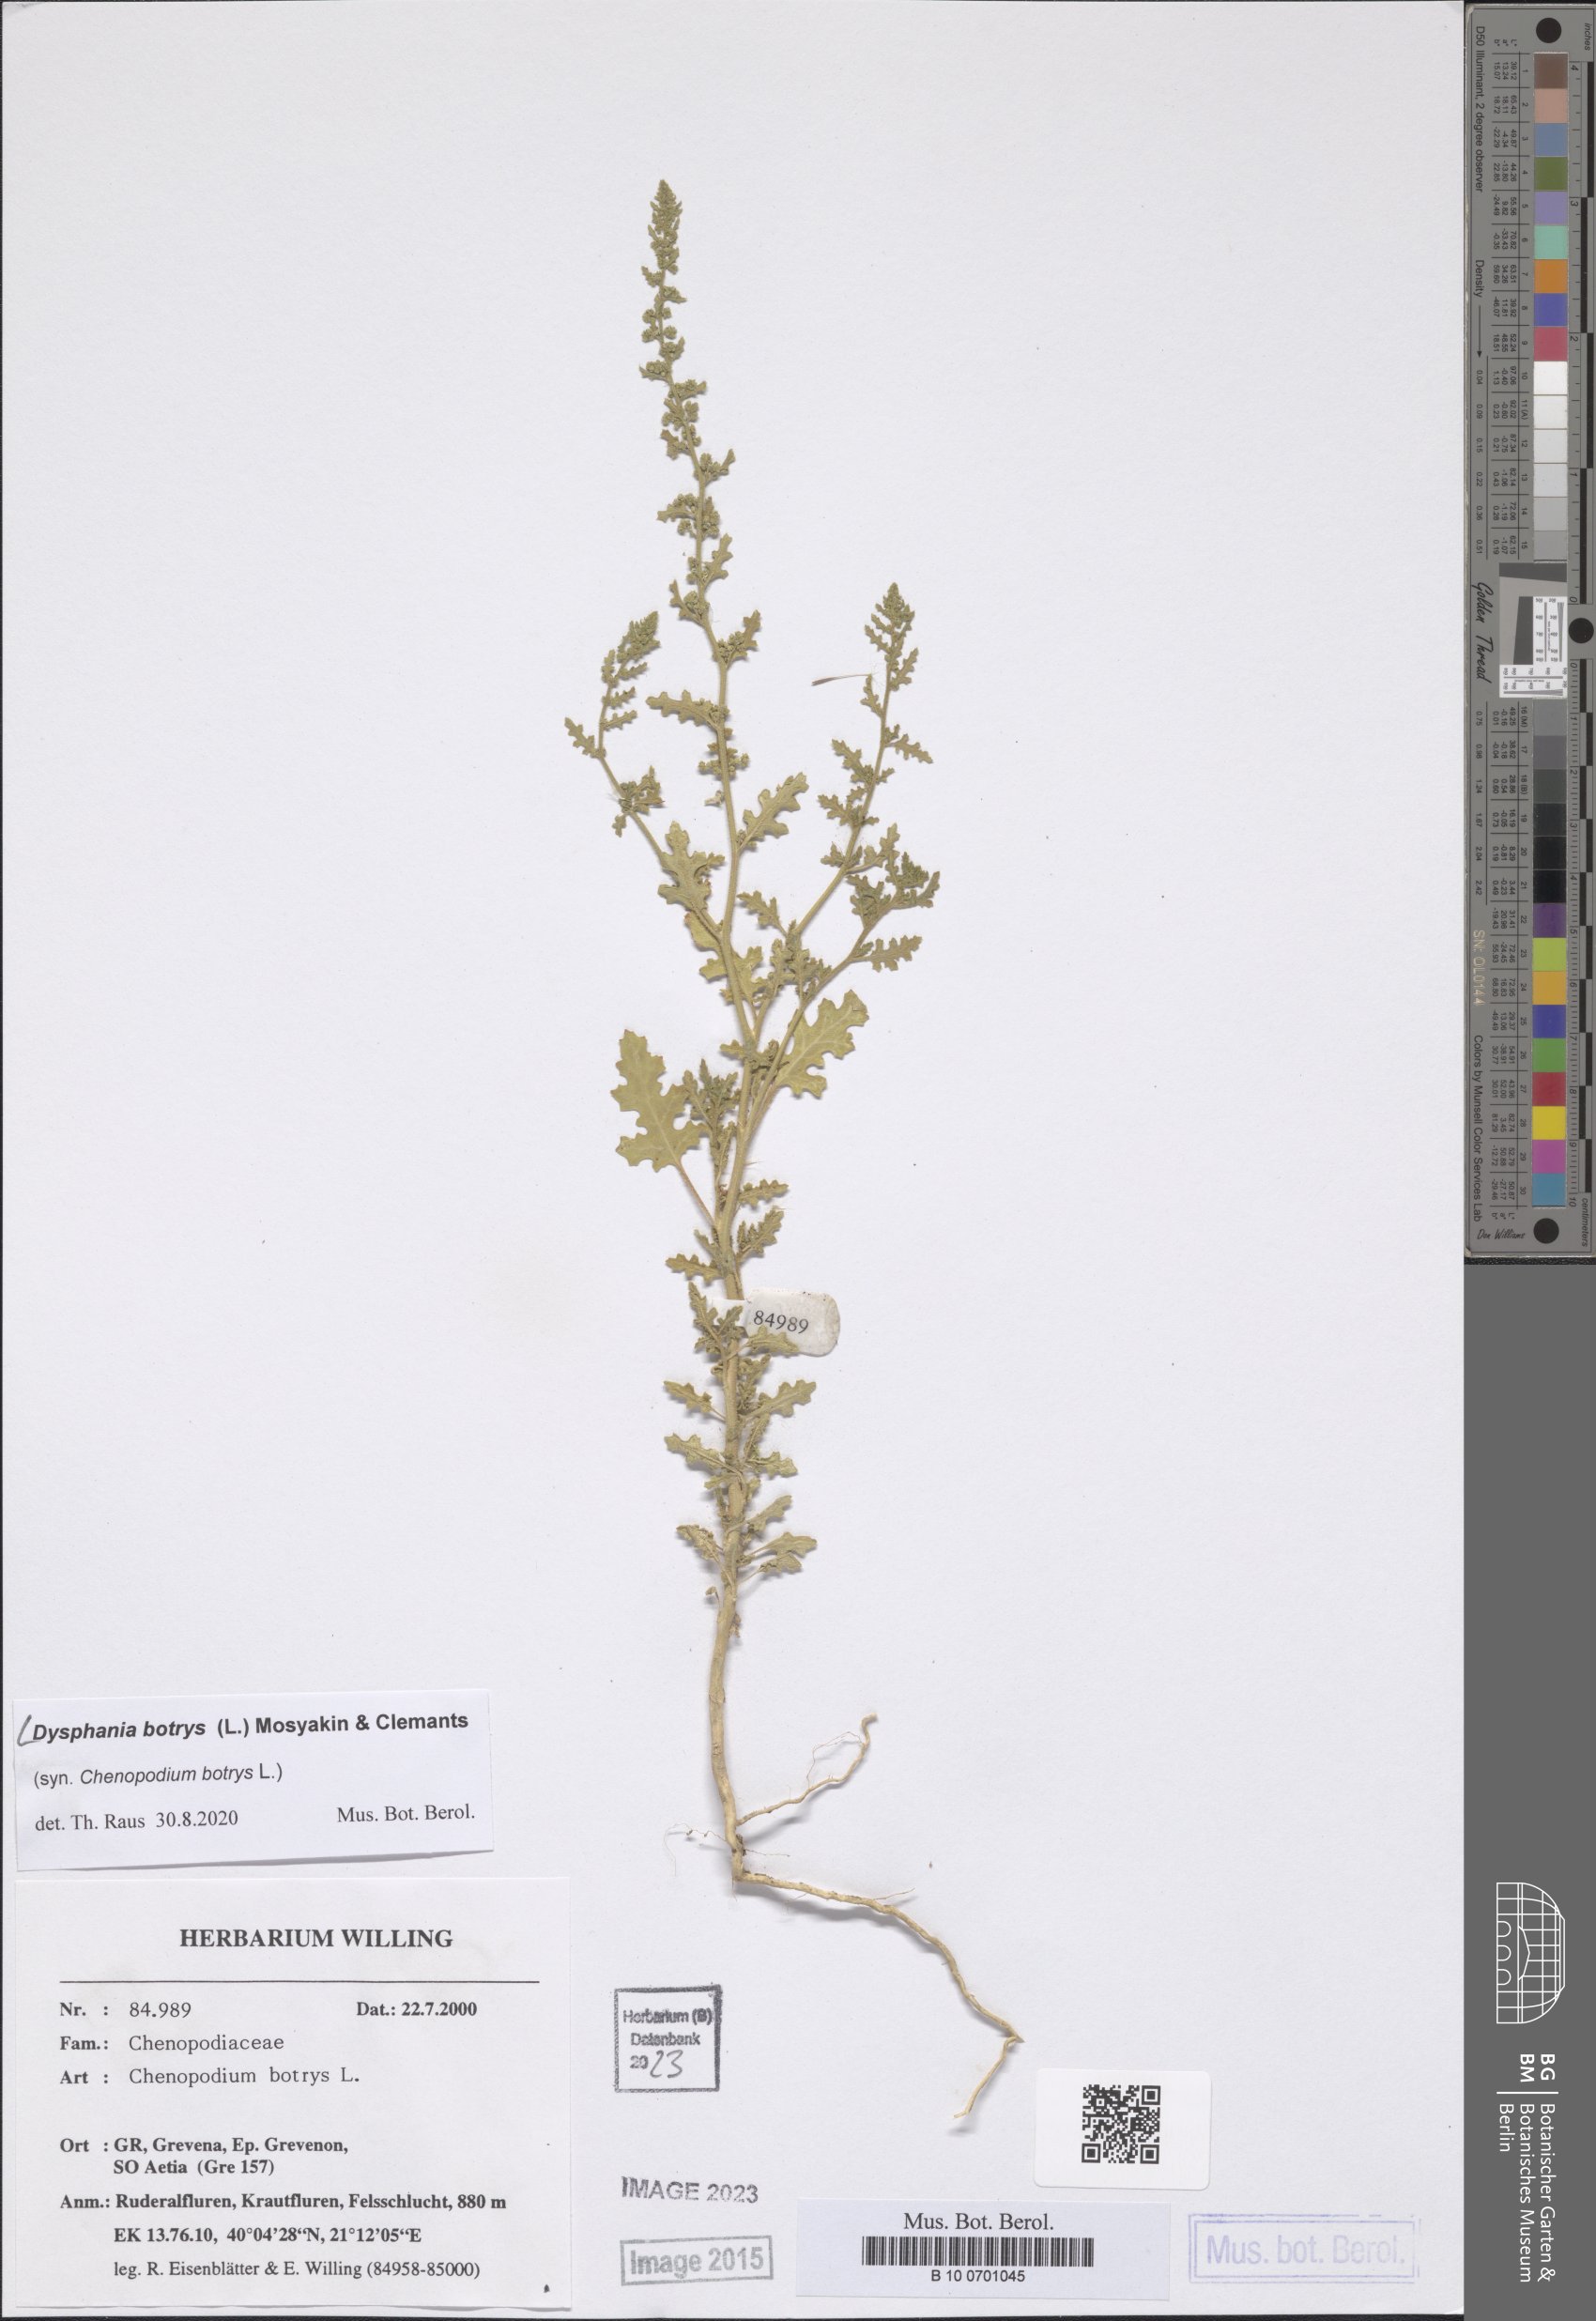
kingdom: Plantae
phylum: Tracheophyta
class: Magnoliopsida
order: Caryophyllales
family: Amaranthaceae
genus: Dysphania
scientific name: Dysphania botrys
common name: Feather-geranium
